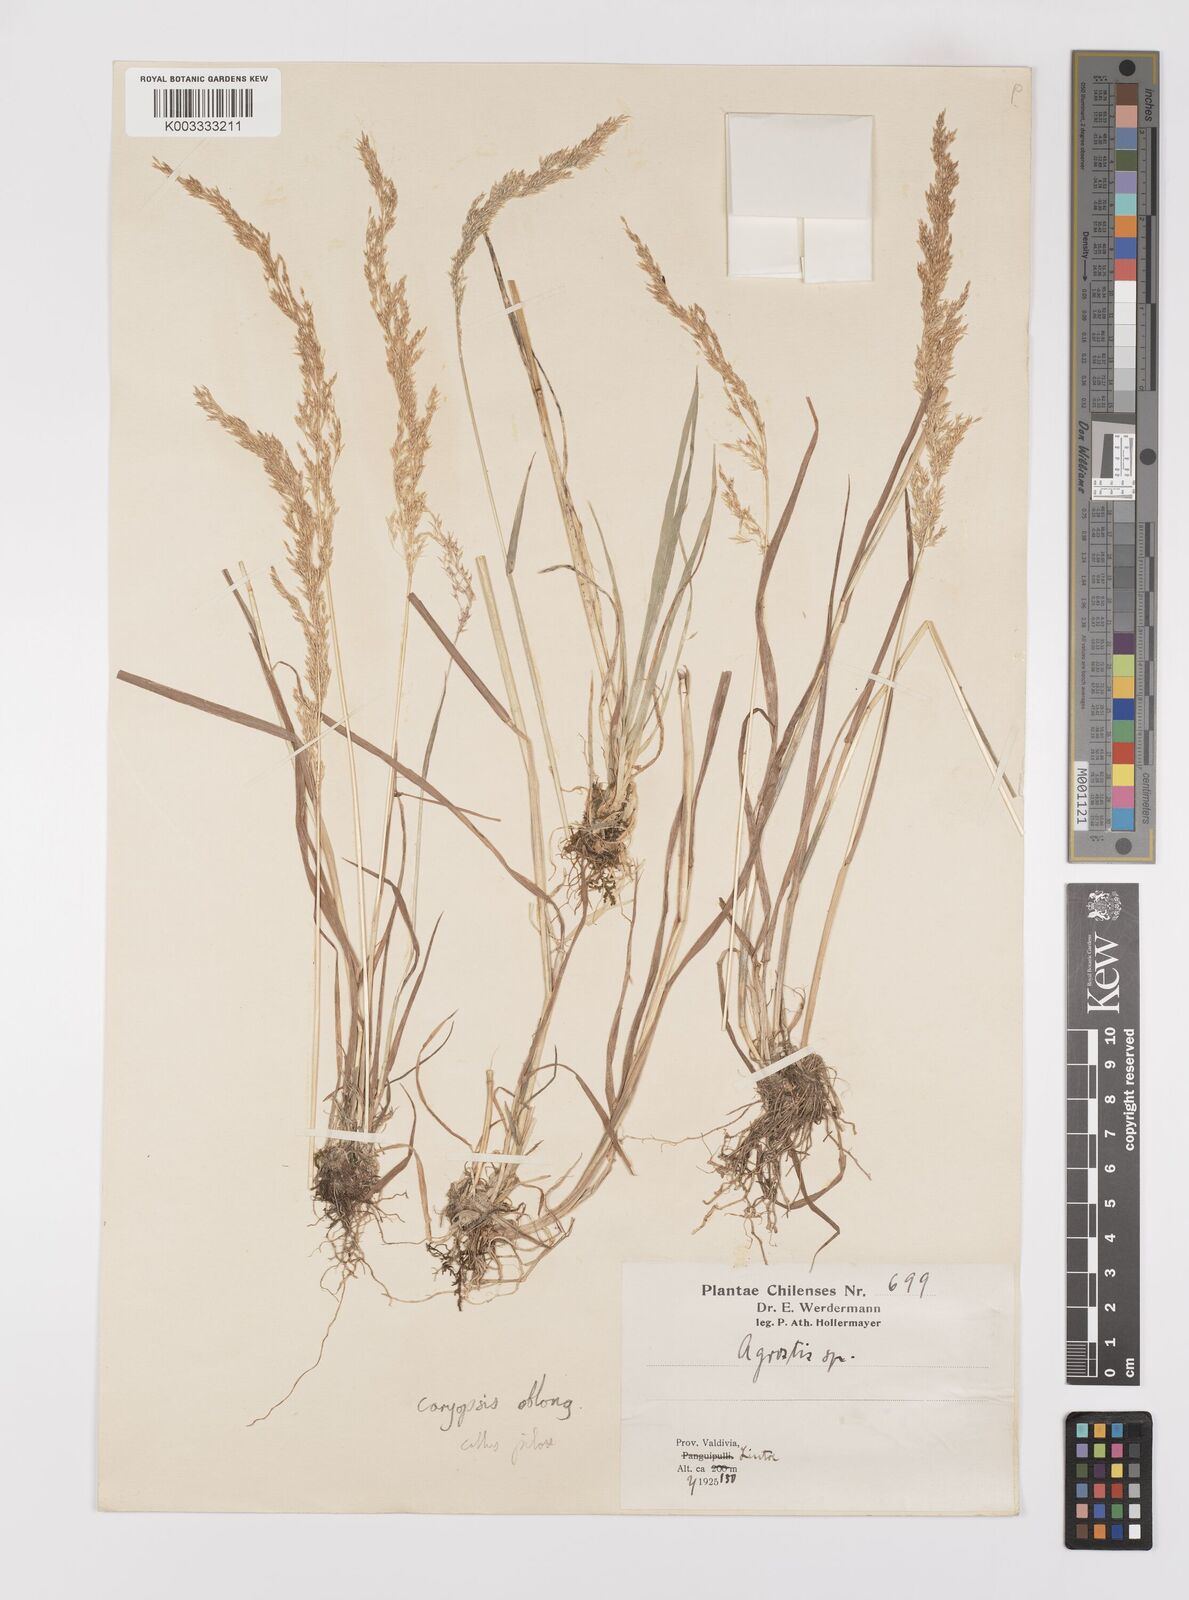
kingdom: Plantae
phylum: Tracheophyta
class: Liliopsida
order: Poales
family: Poaceae
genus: Polypogon
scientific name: Polypogon exasperatus
